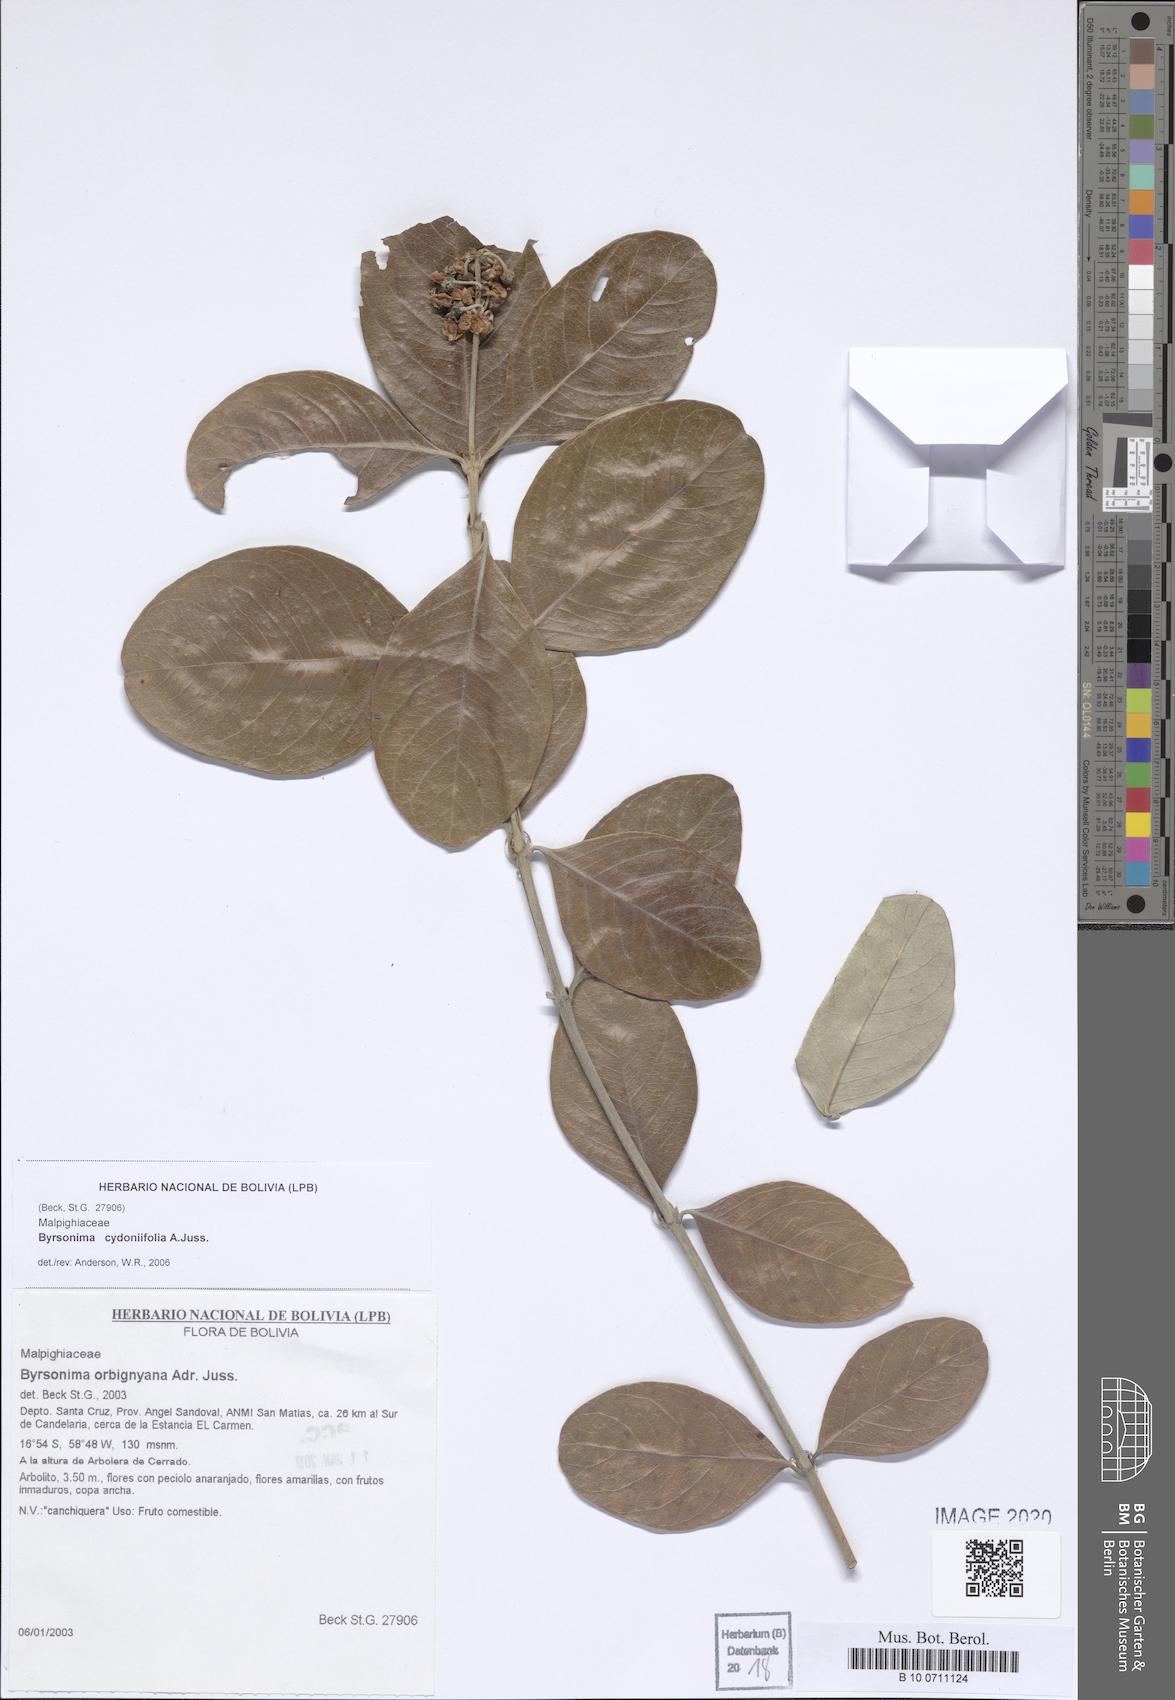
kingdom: Plantae
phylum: Tracheophyta
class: Magnoliopsida
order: Malpighiales
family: Malpighiaceae
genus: Byrsonima
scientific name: Byrsonima cydoniifolia
